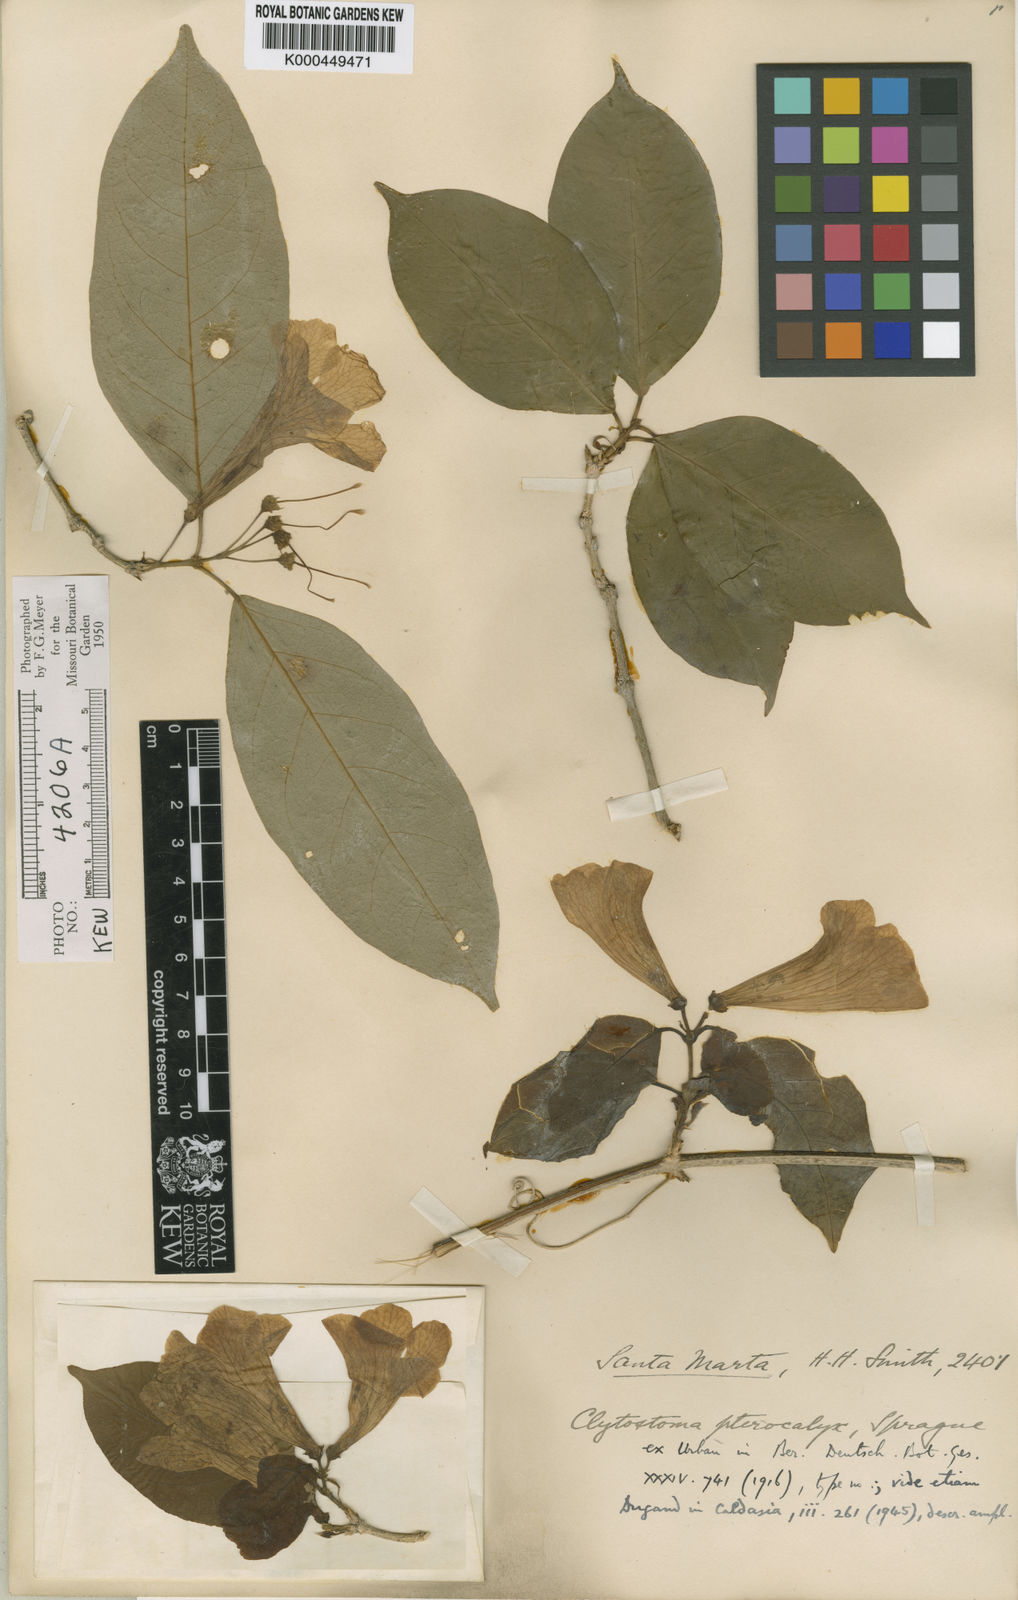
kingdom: Plantae
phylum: Tracheophyta
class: Magnoliopsida
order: Lamiales
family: Bignoniaceae
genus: Bignonia
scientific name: Bignonia pterocalyx
